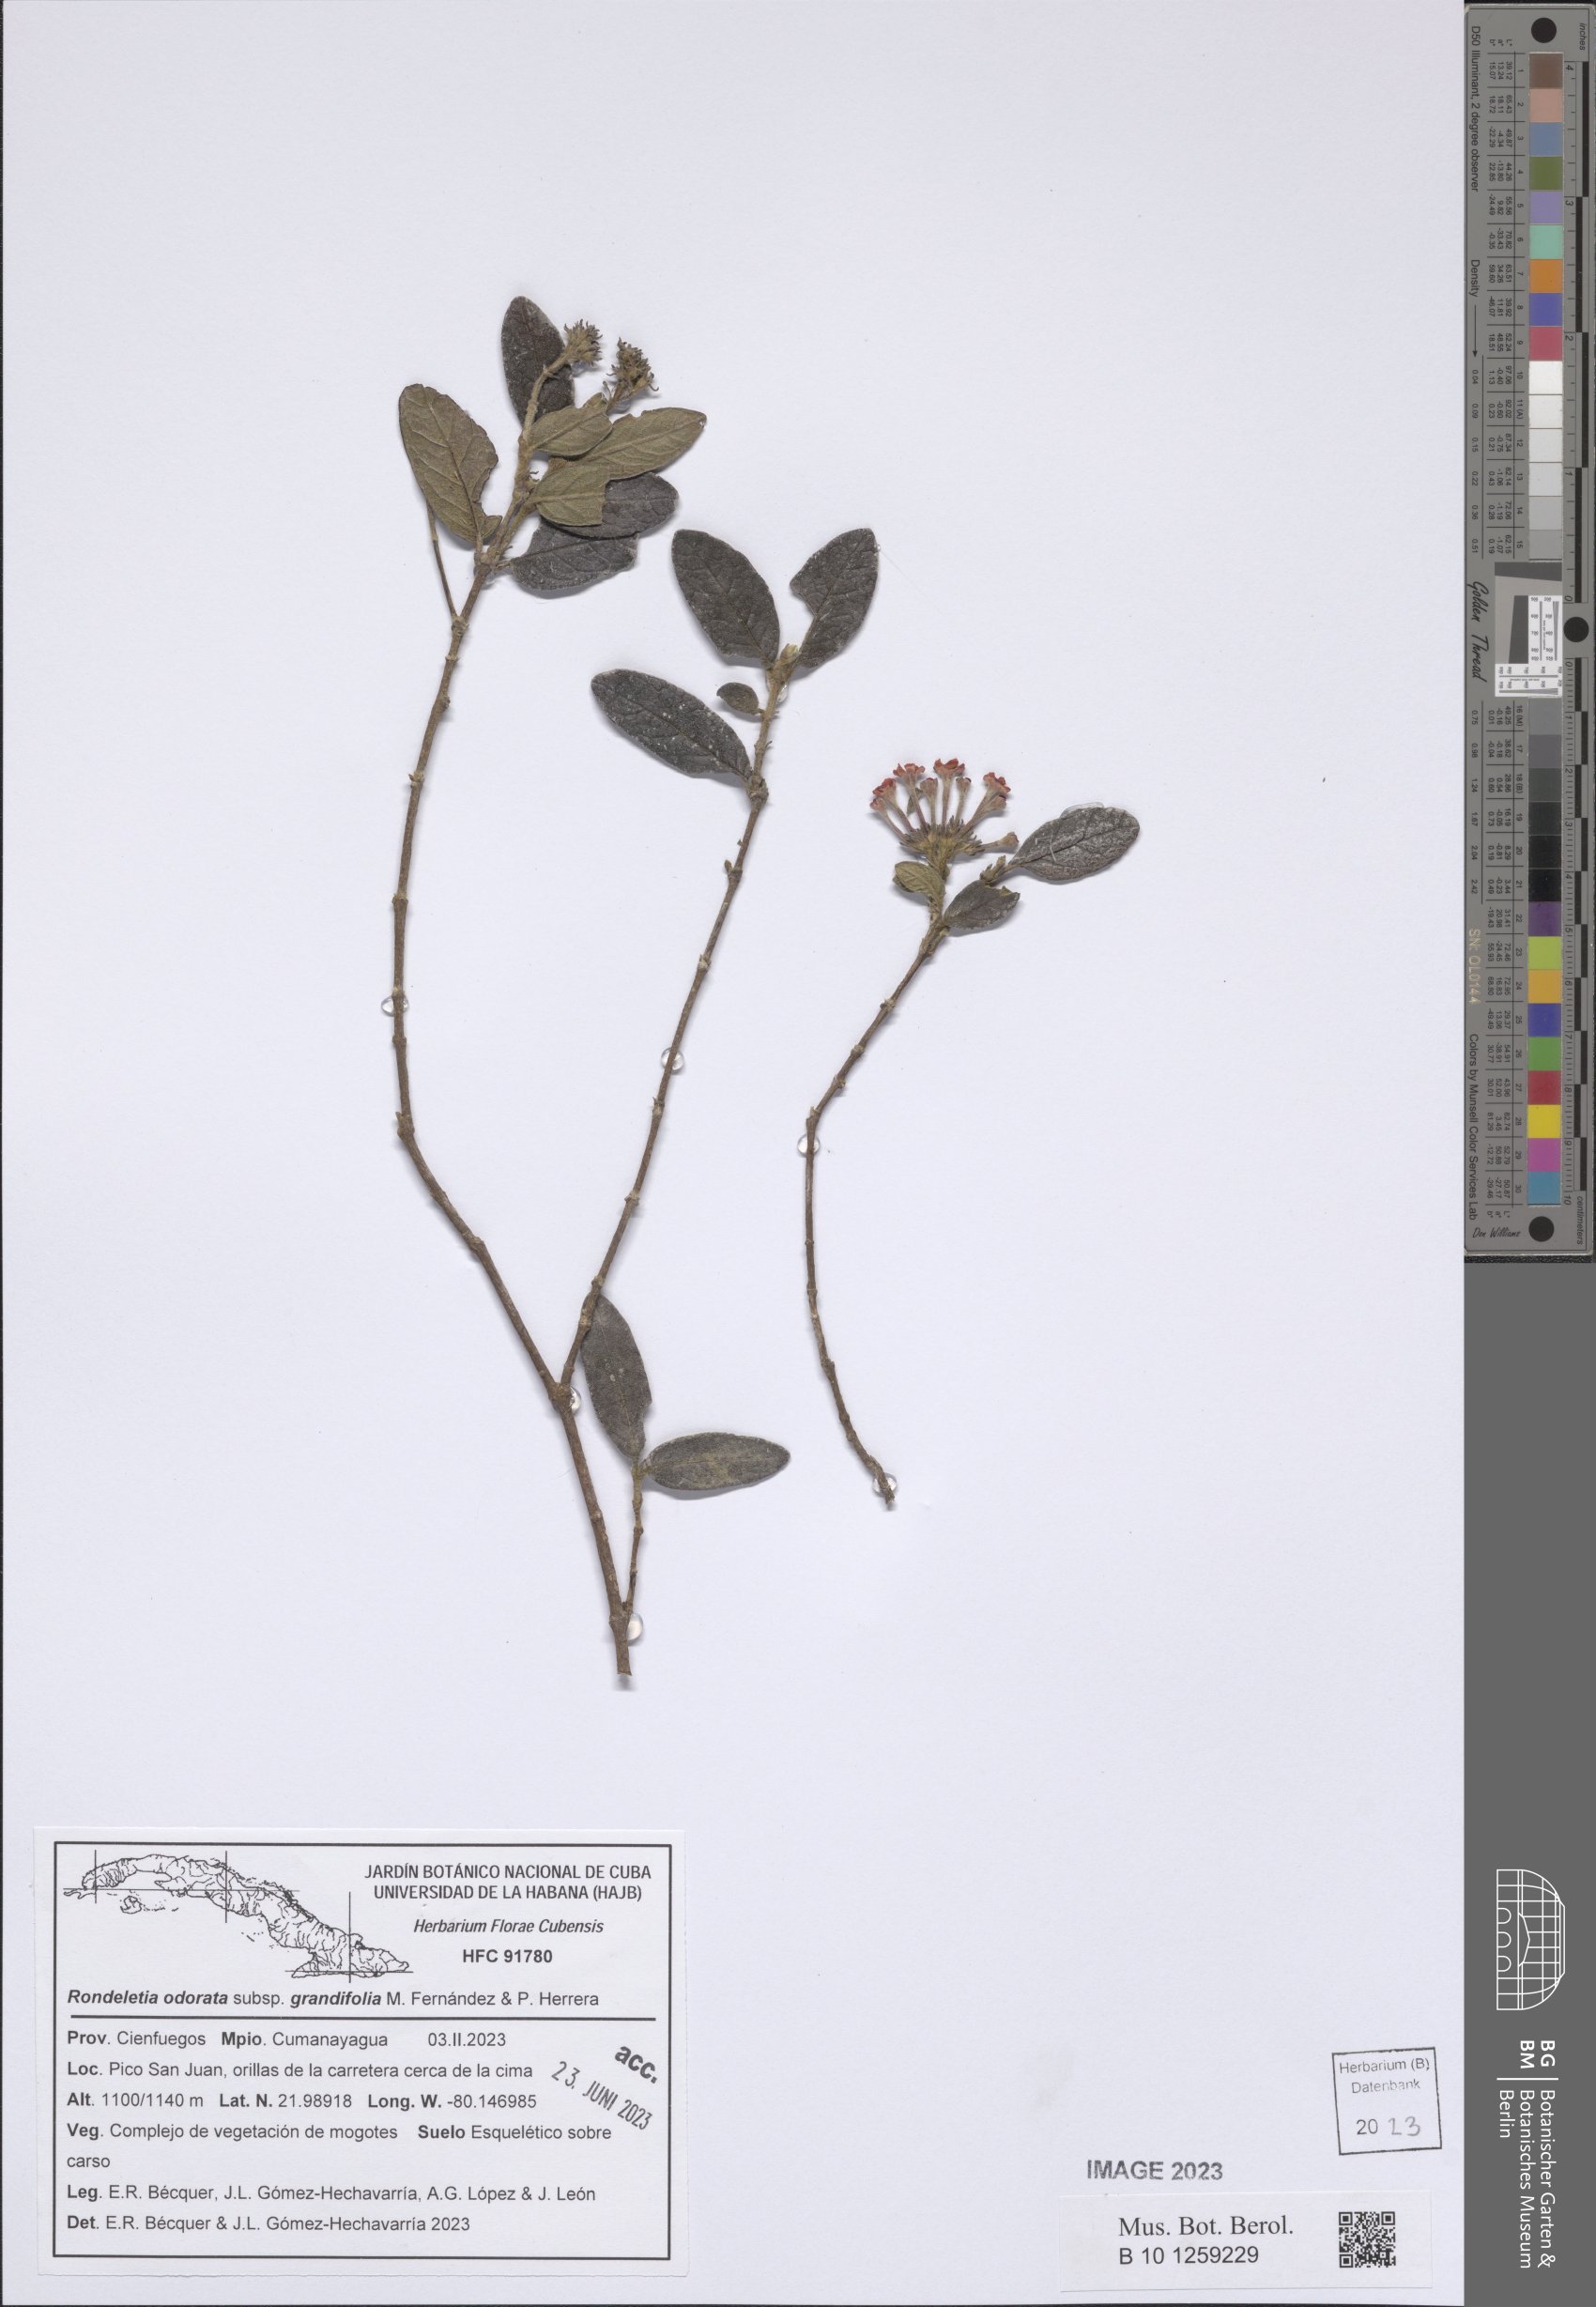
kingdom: Plantae
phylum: Tracheophyta
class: Magnoliopsida
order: Gentianales
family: Rubiaceae
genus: Rondeletia
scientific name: Rondeletia odorata
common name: Panama-rose
